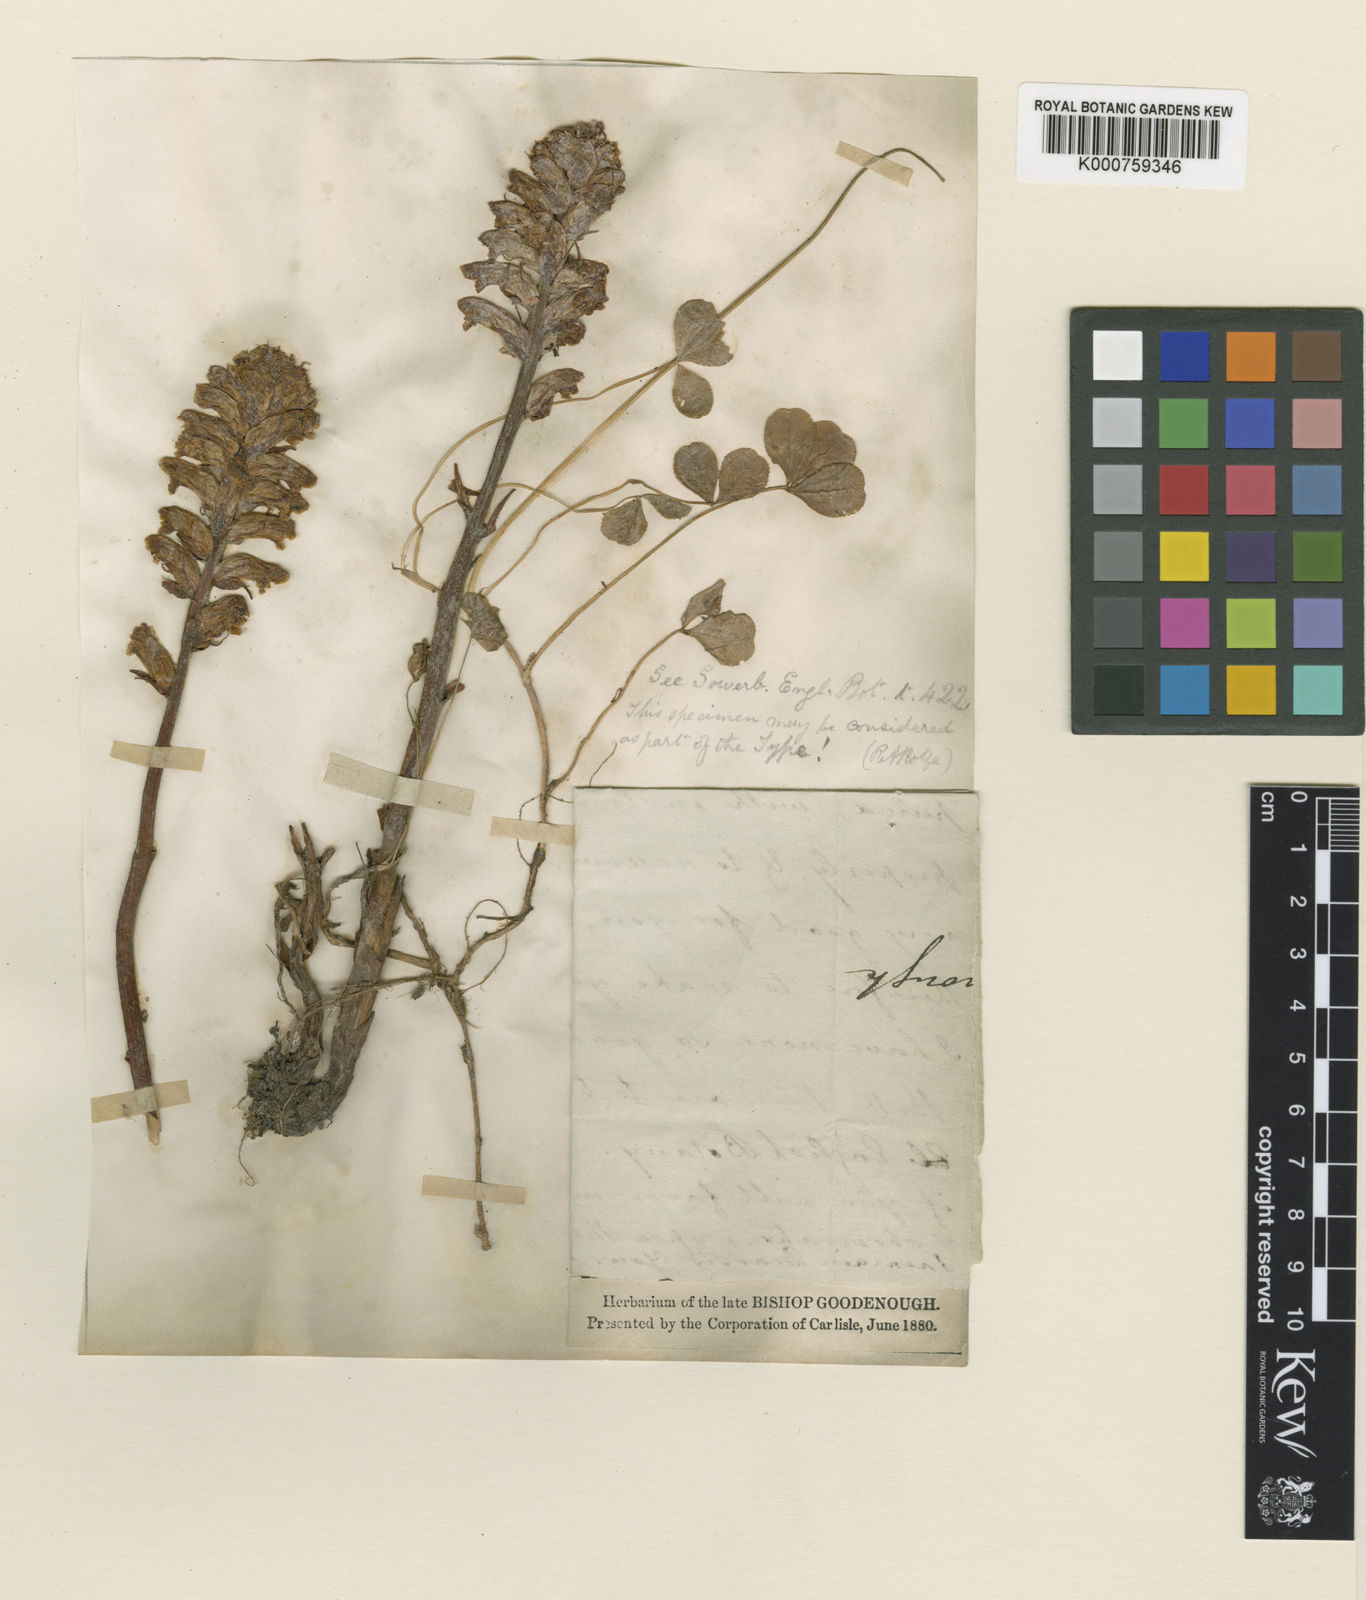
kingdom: Plantae
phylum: Tracheophyta
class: Magnoliopsida
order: Lamiales
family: Orobanchaceae
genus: Orobanche
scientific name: Orobanche minor
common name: Common broomrape
